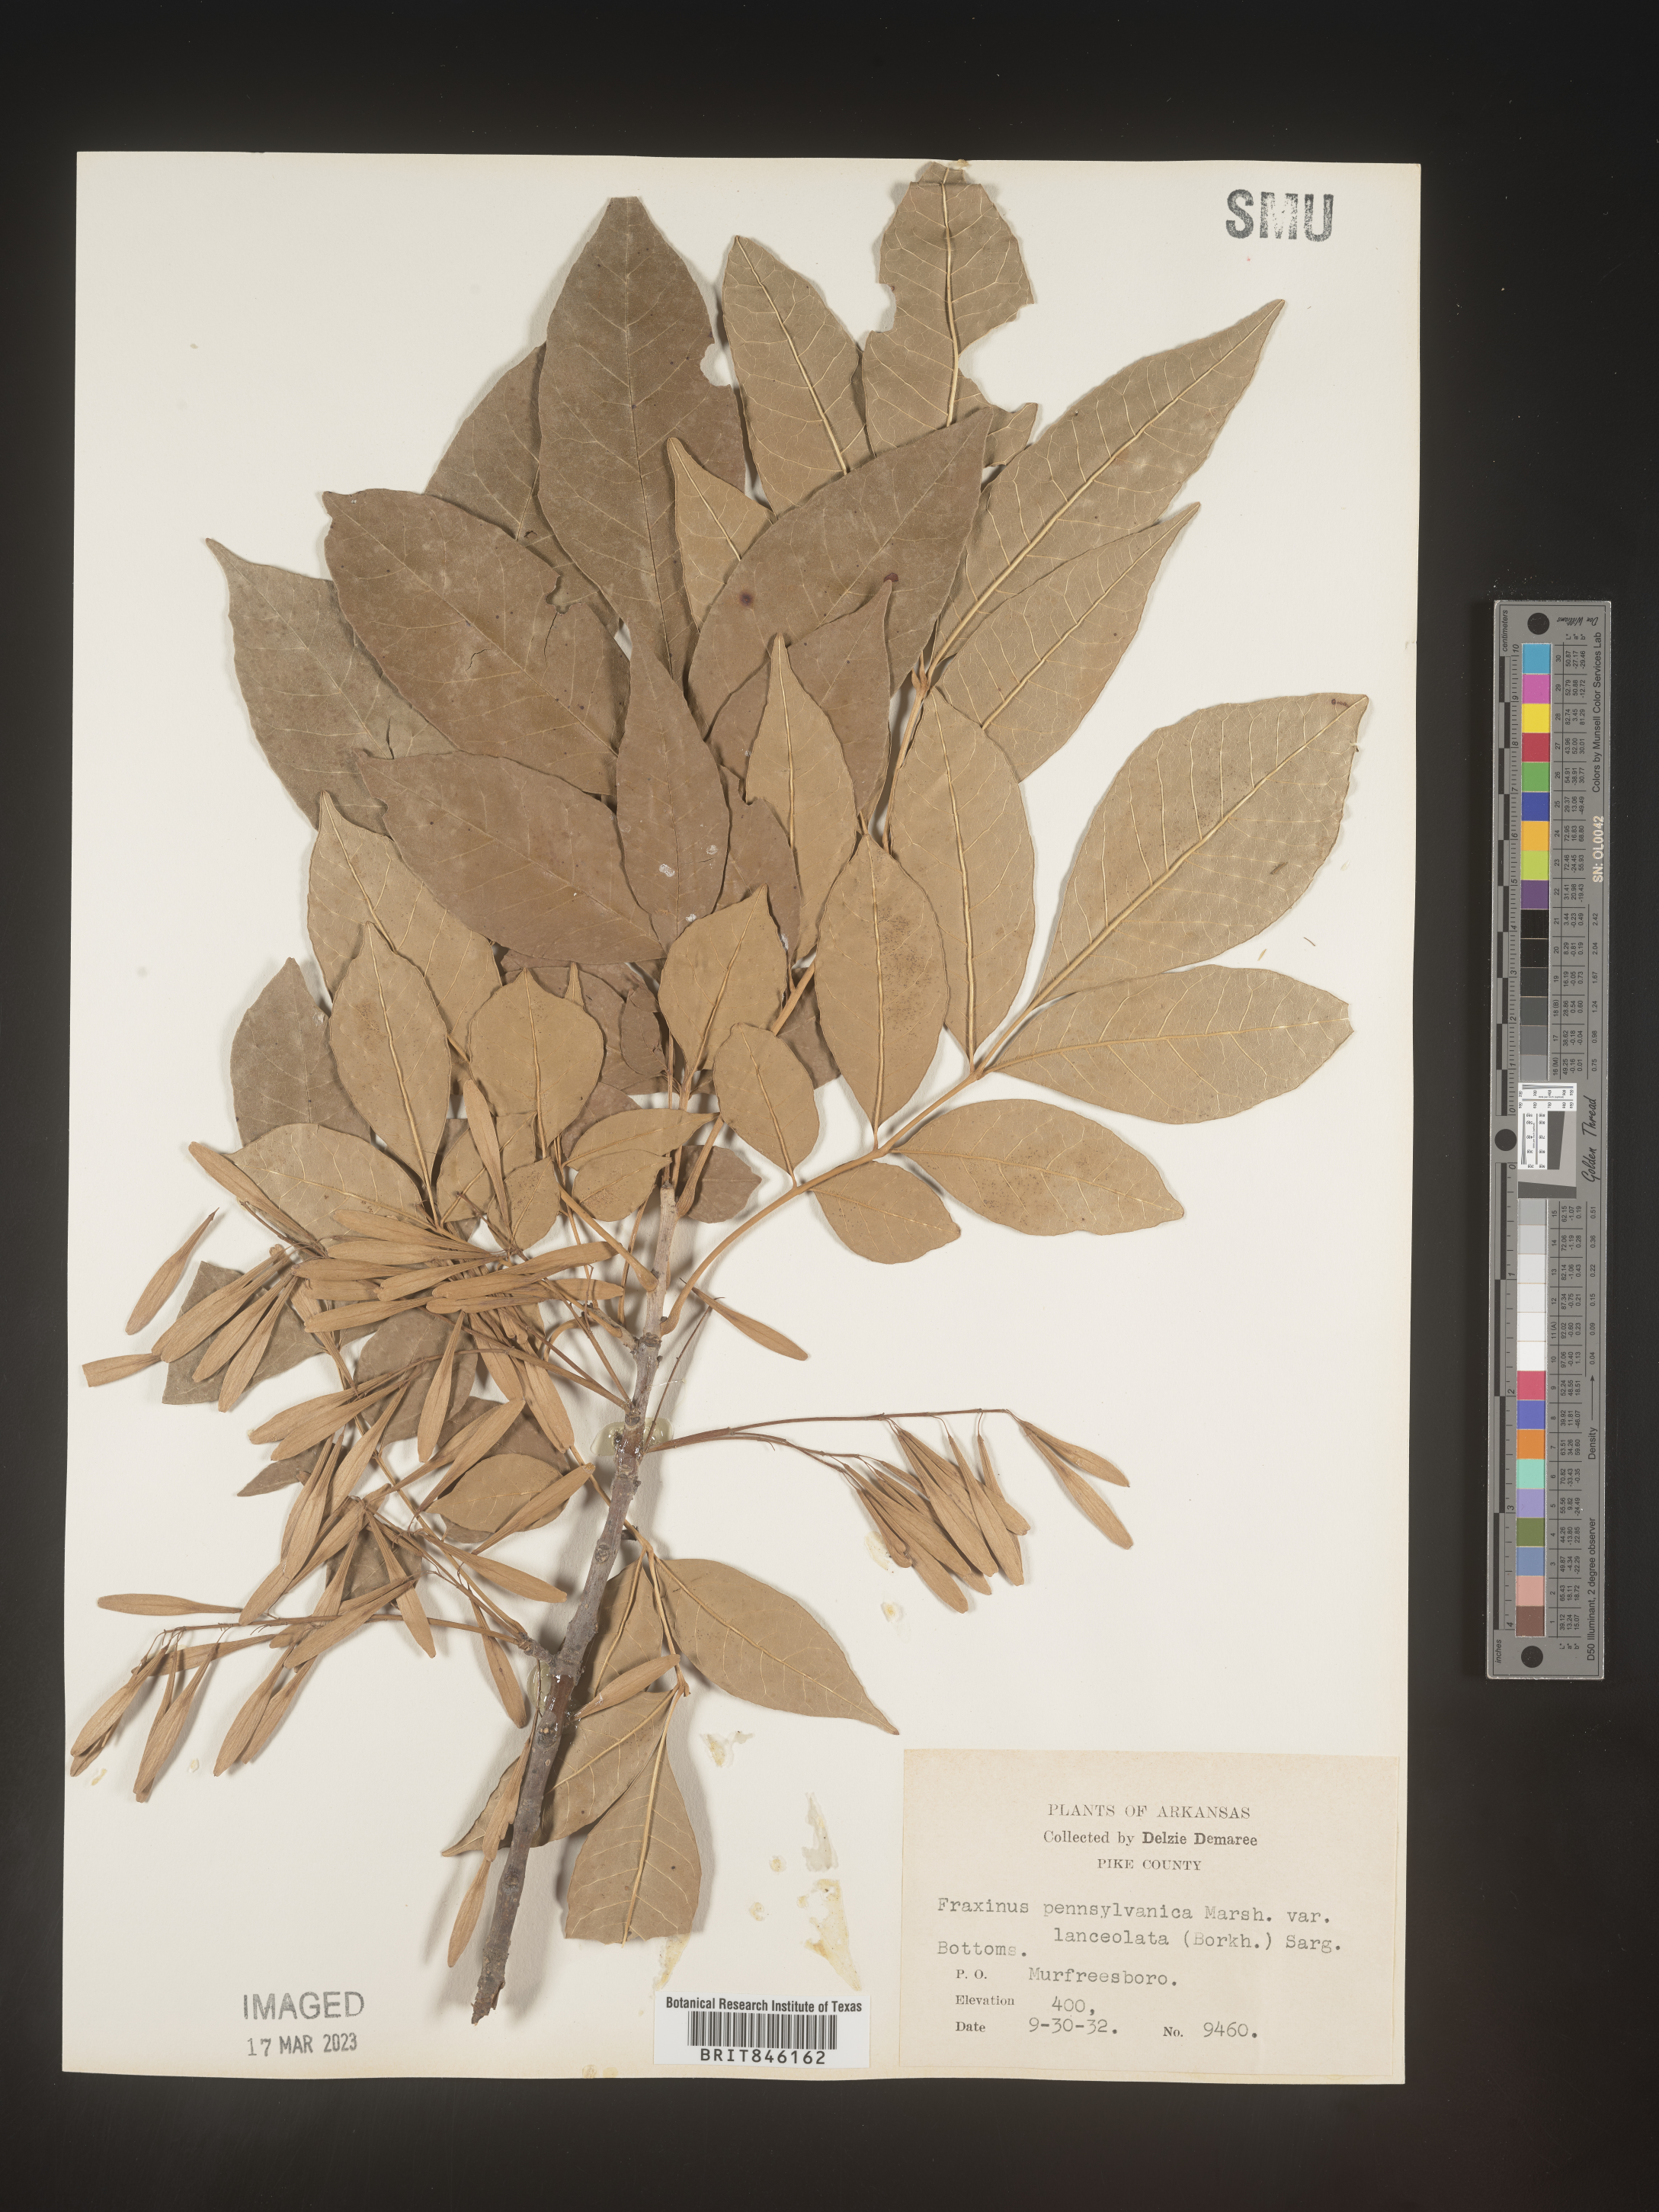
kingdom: Plantae
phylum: Tracheophyta
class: Magnoliopsida
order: Lamiales
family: Oleaceae
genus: Fraxinus
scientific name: Fraxinus pennsylvanica
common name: Green ash
